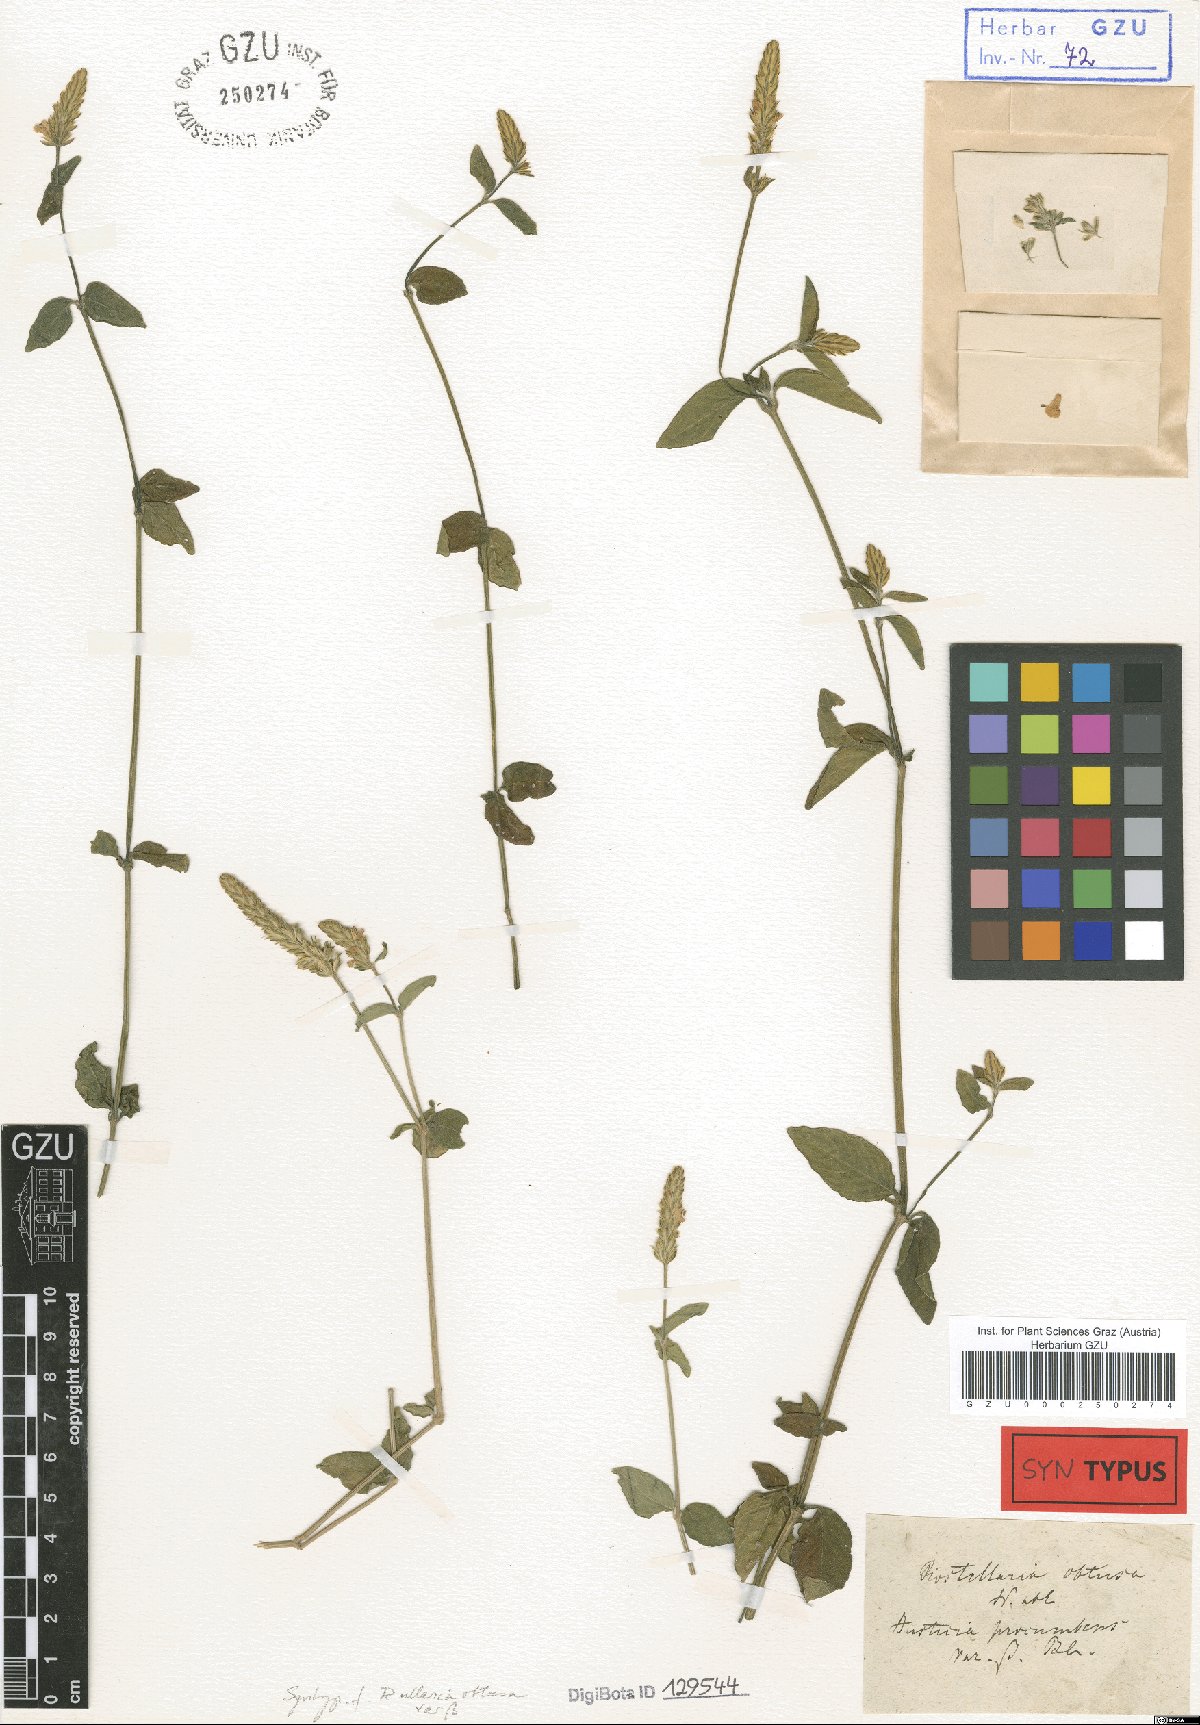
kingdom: Plantae
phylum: Tracheophyta
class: Magnoliopsida
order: Lamiales
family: Acanthaceae
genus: Rostellularia
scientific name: Rostellularia obtusa
